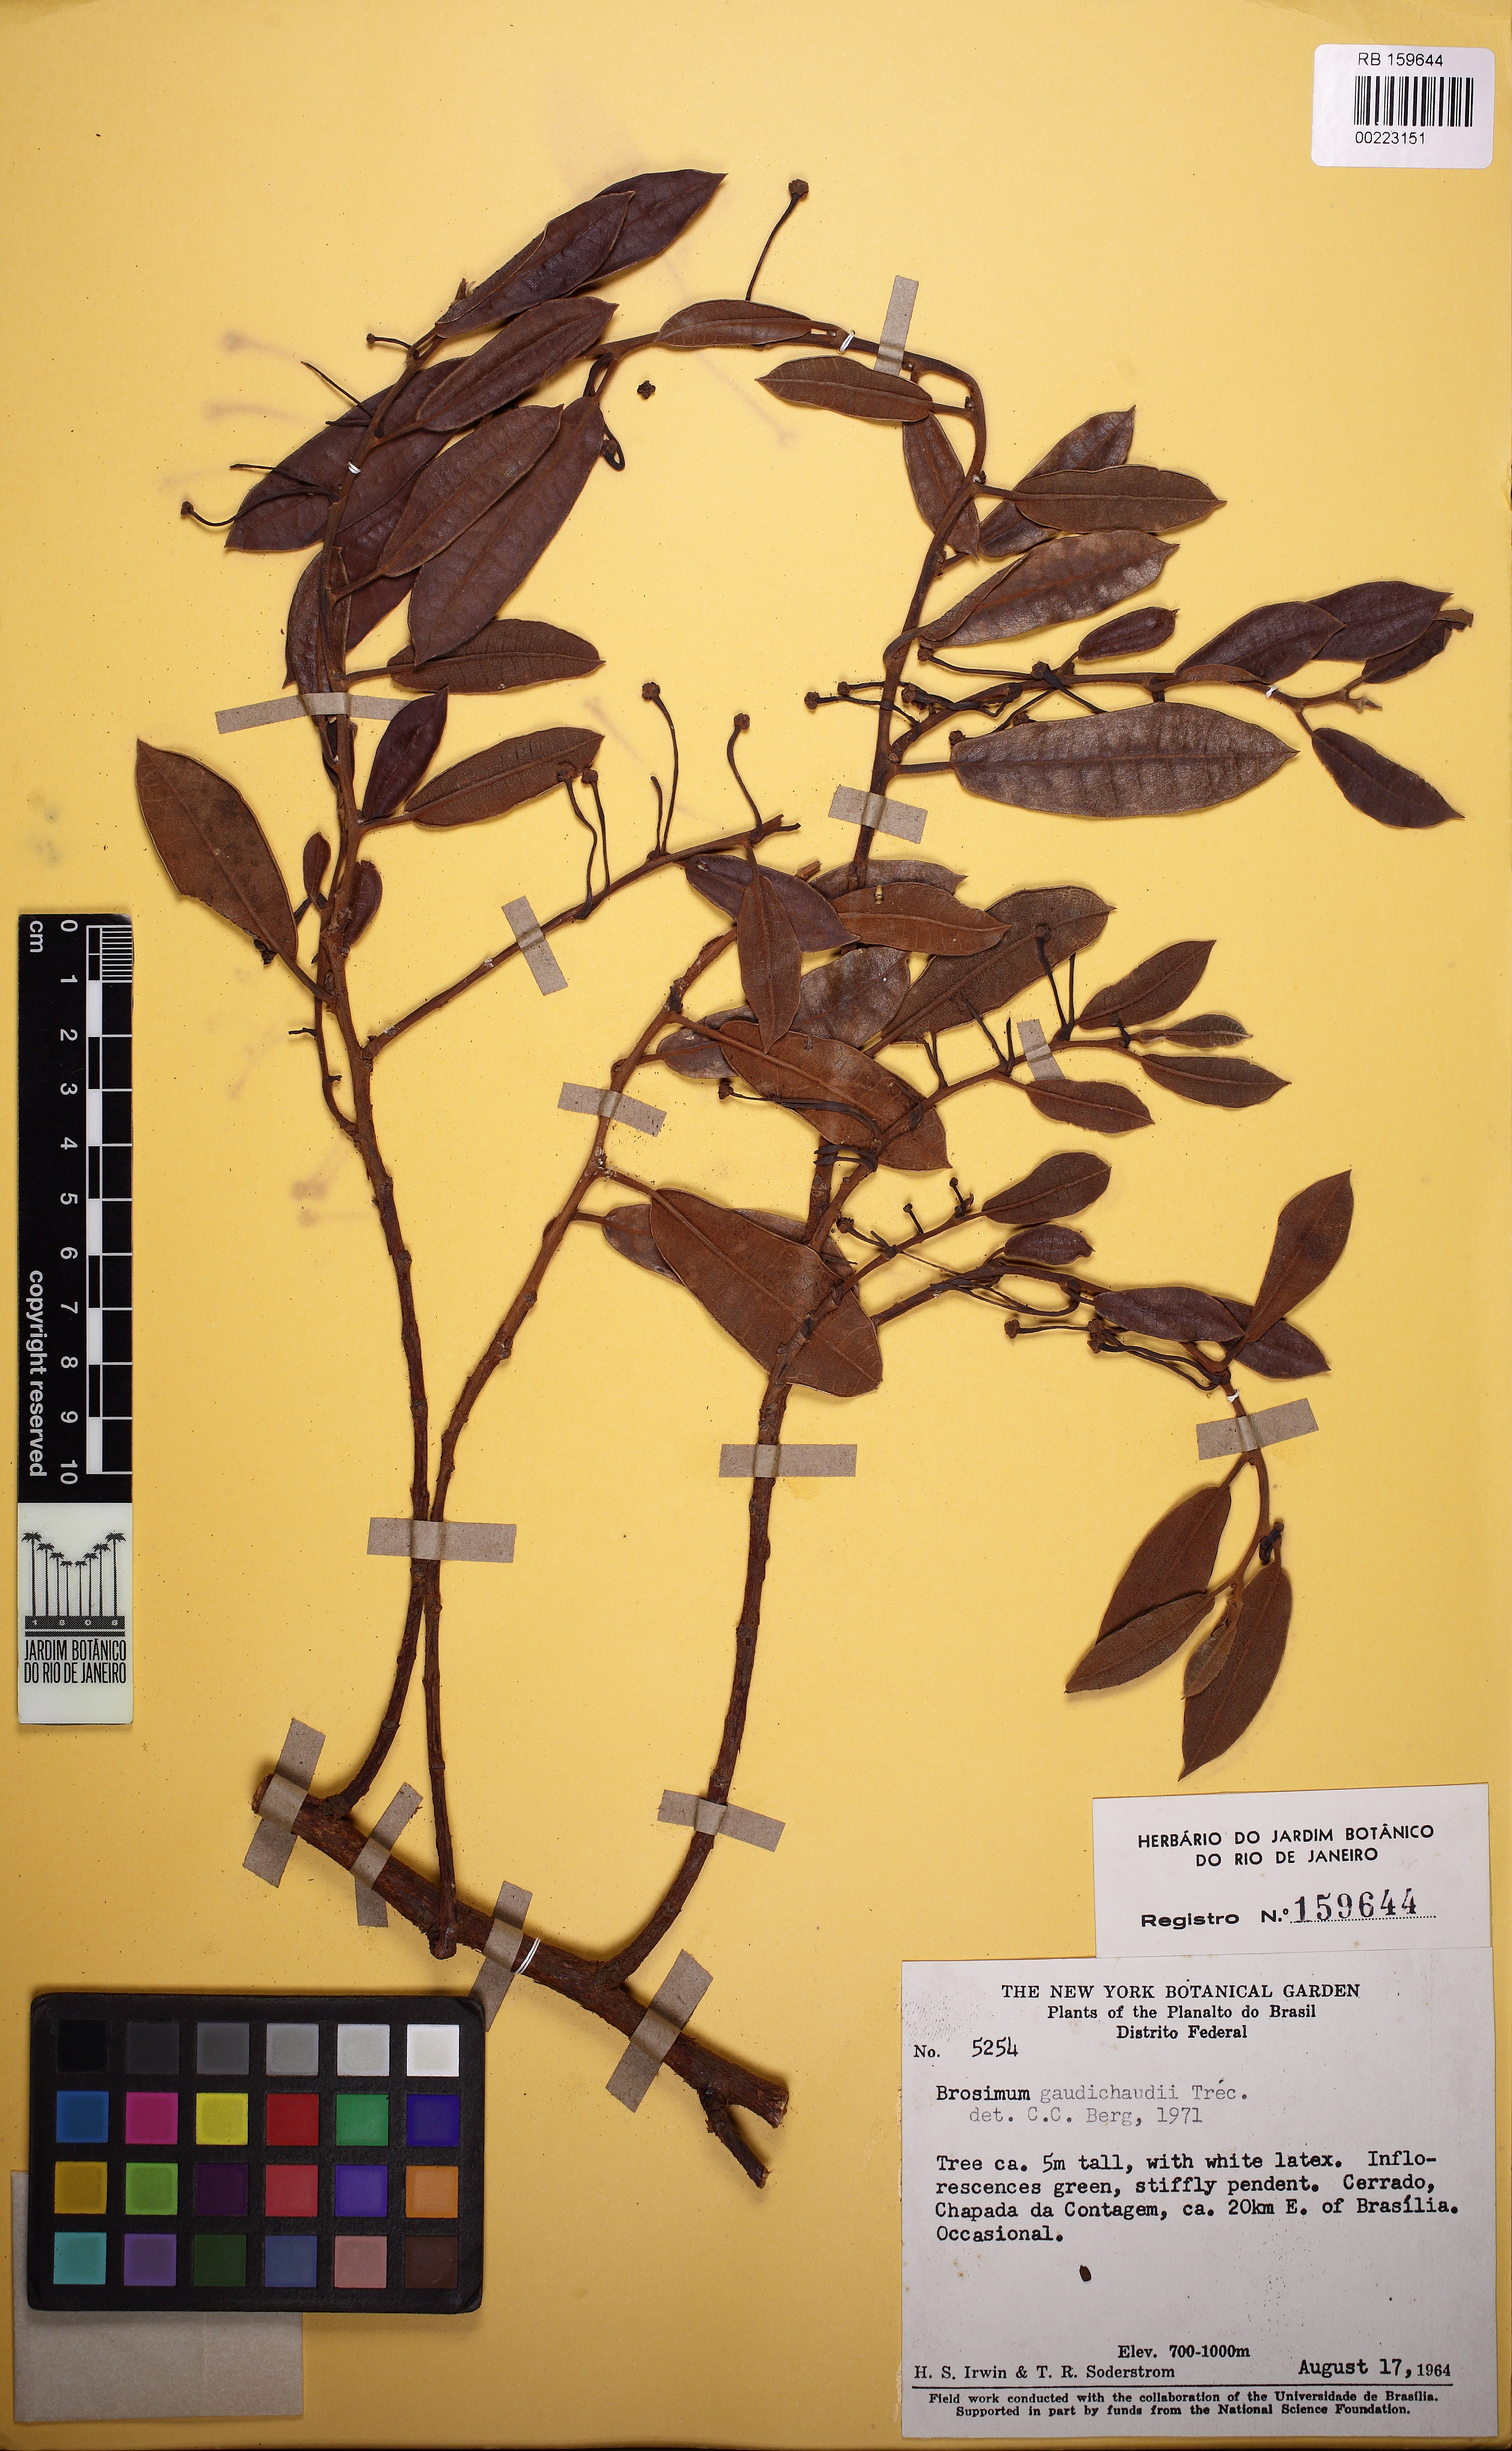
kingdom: Plantae
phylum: Tracheophyta
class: Magnoliopsida
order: Rosales
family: Moraceae
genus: Brosimum
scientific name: Brosimum gaudichaudii
